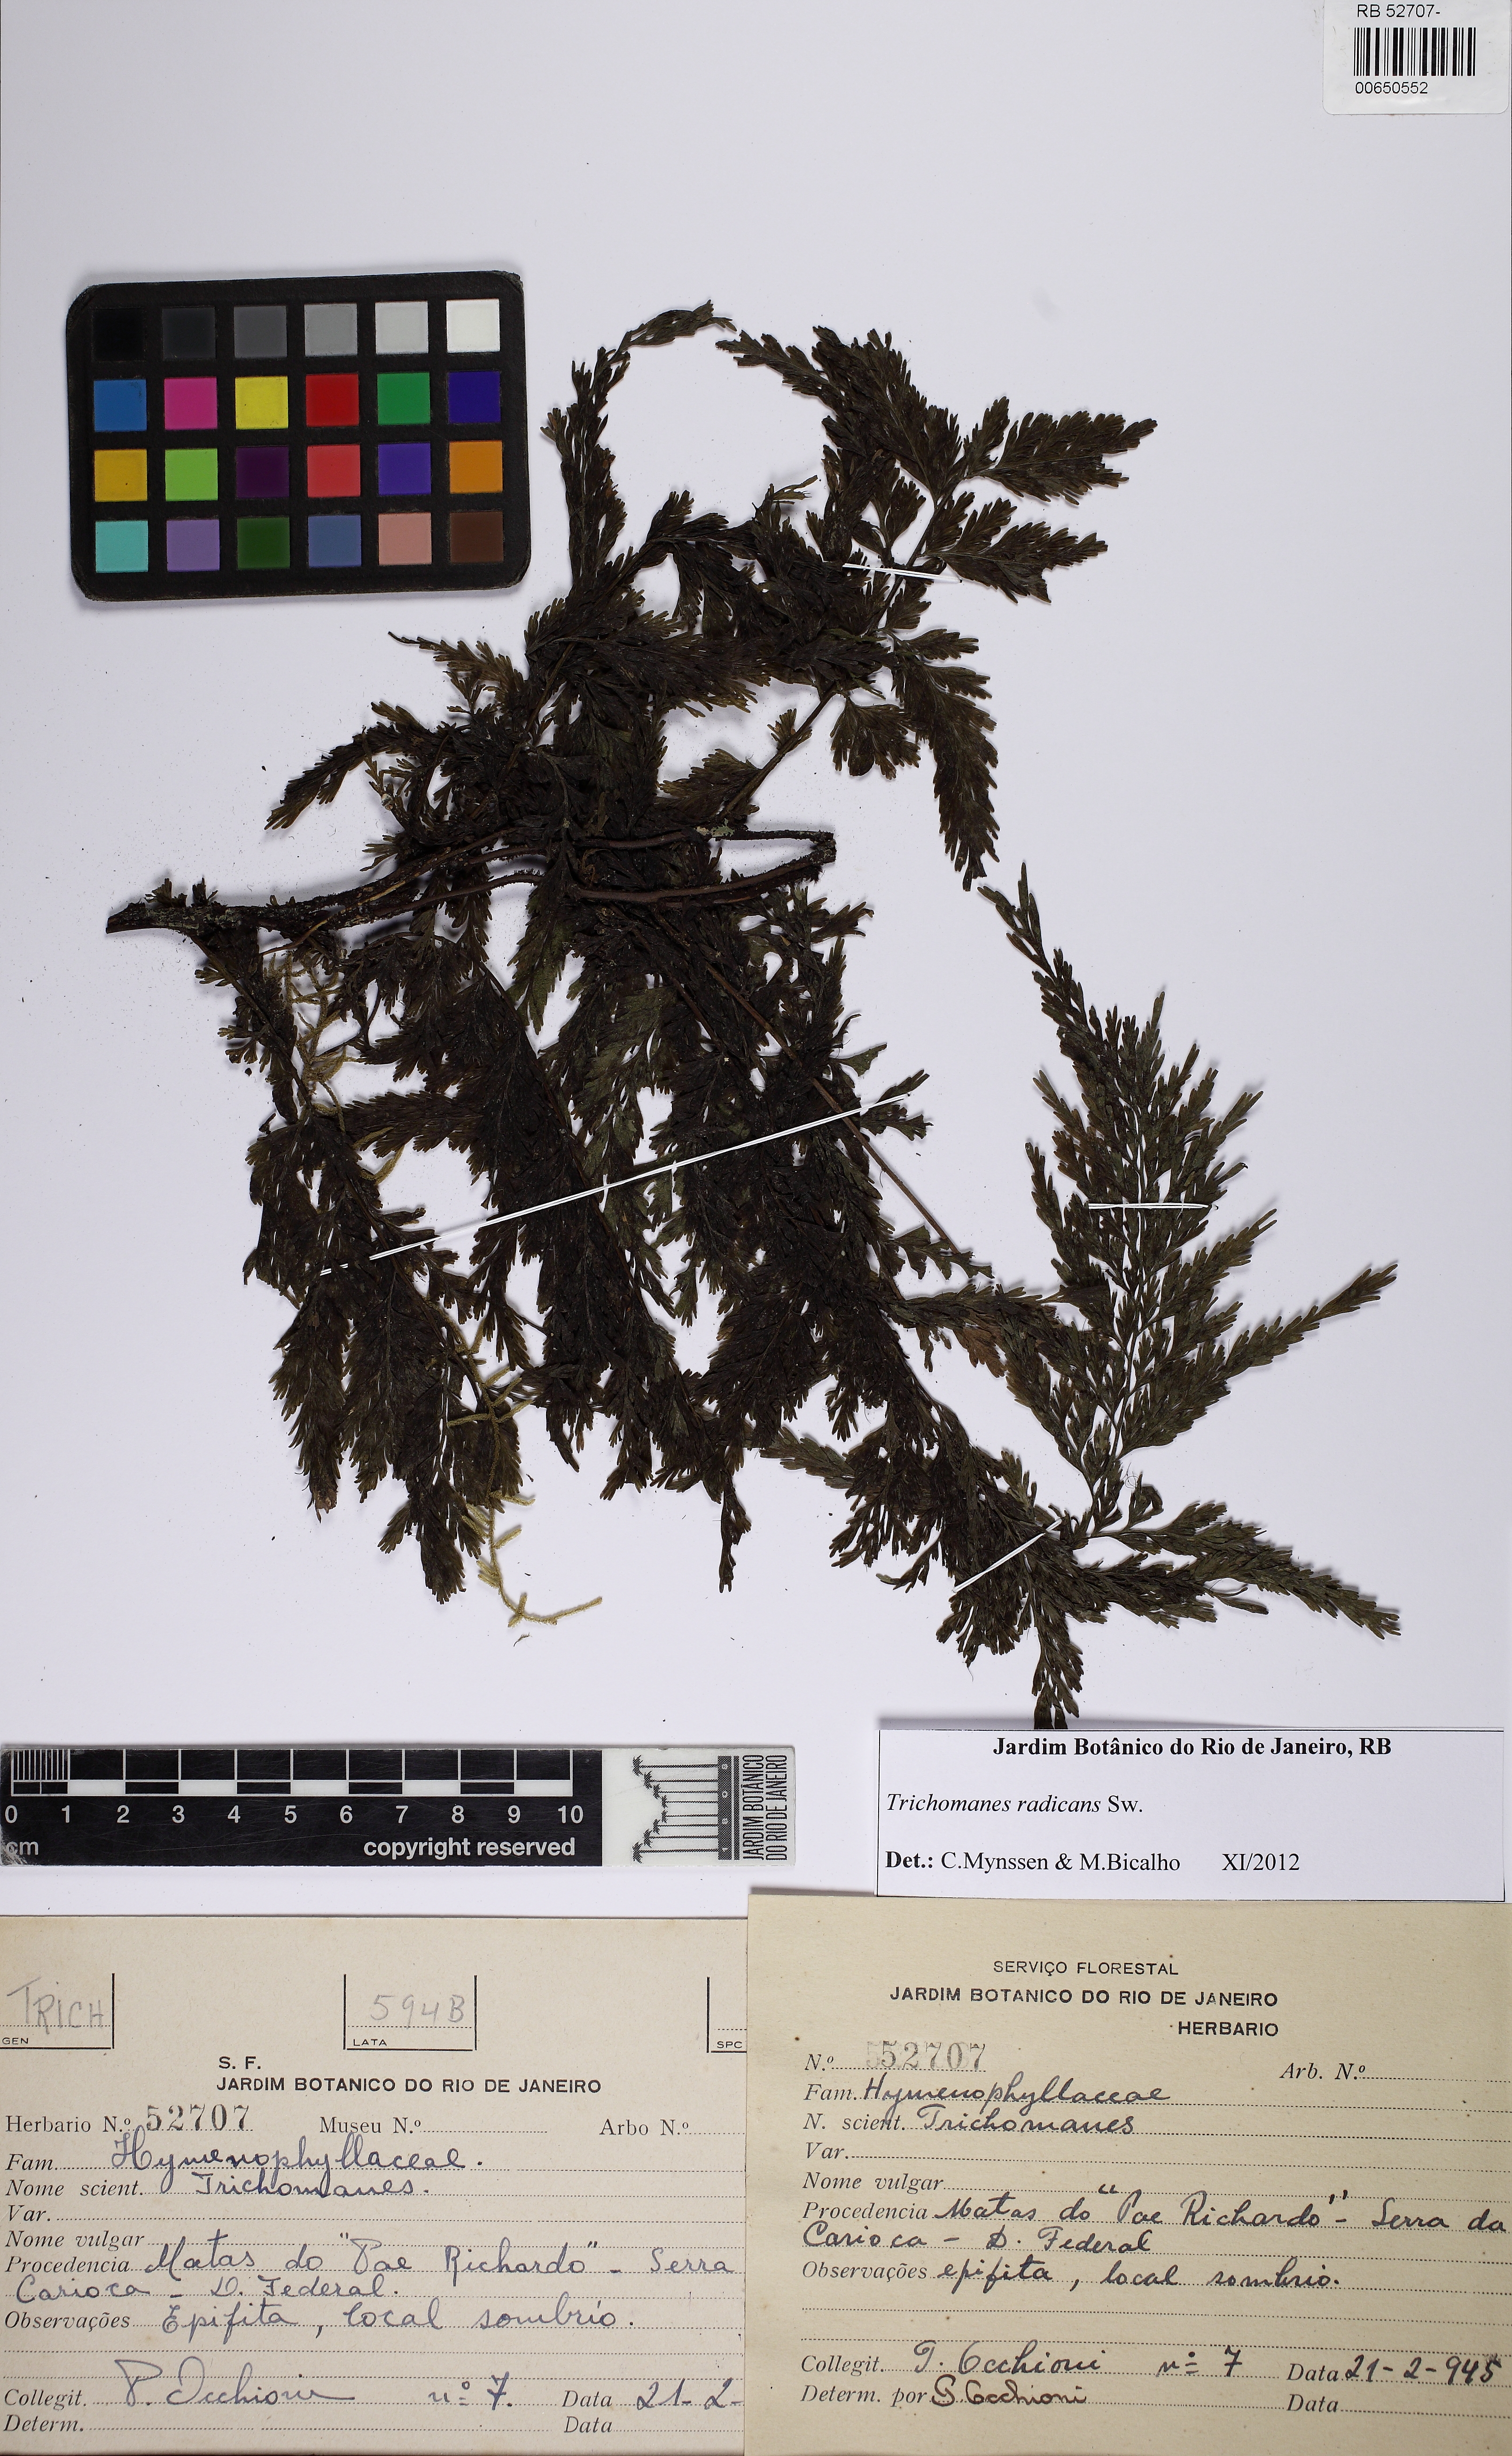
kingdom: Plantae
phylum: Tracheophyta
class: Polypodiopsida
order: Hymenophyllales
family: Hymenophyllaceae
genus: Vandenboschia
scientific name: Vandenboschia radicans
